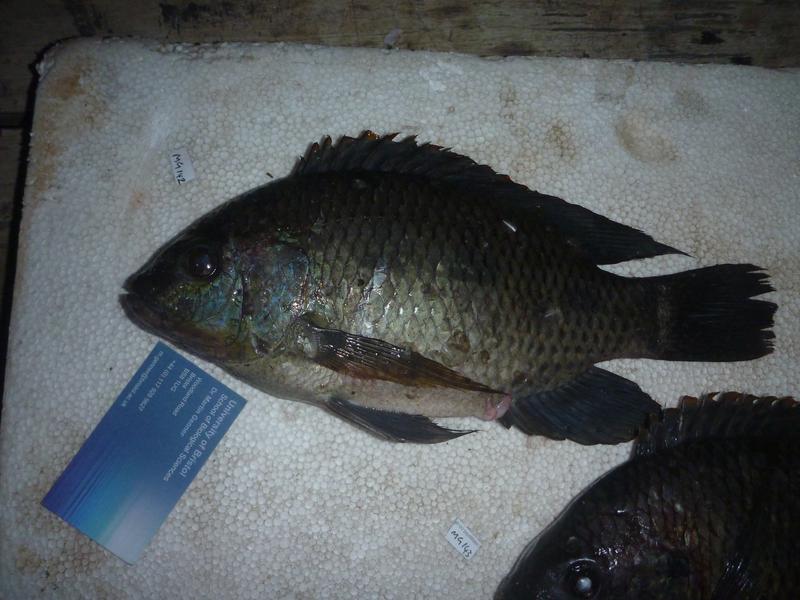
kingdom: Animalia
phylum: Chordata
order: Perciformes
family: Cichlidae
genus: Oreochromis
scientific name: Oreochromis upembae
